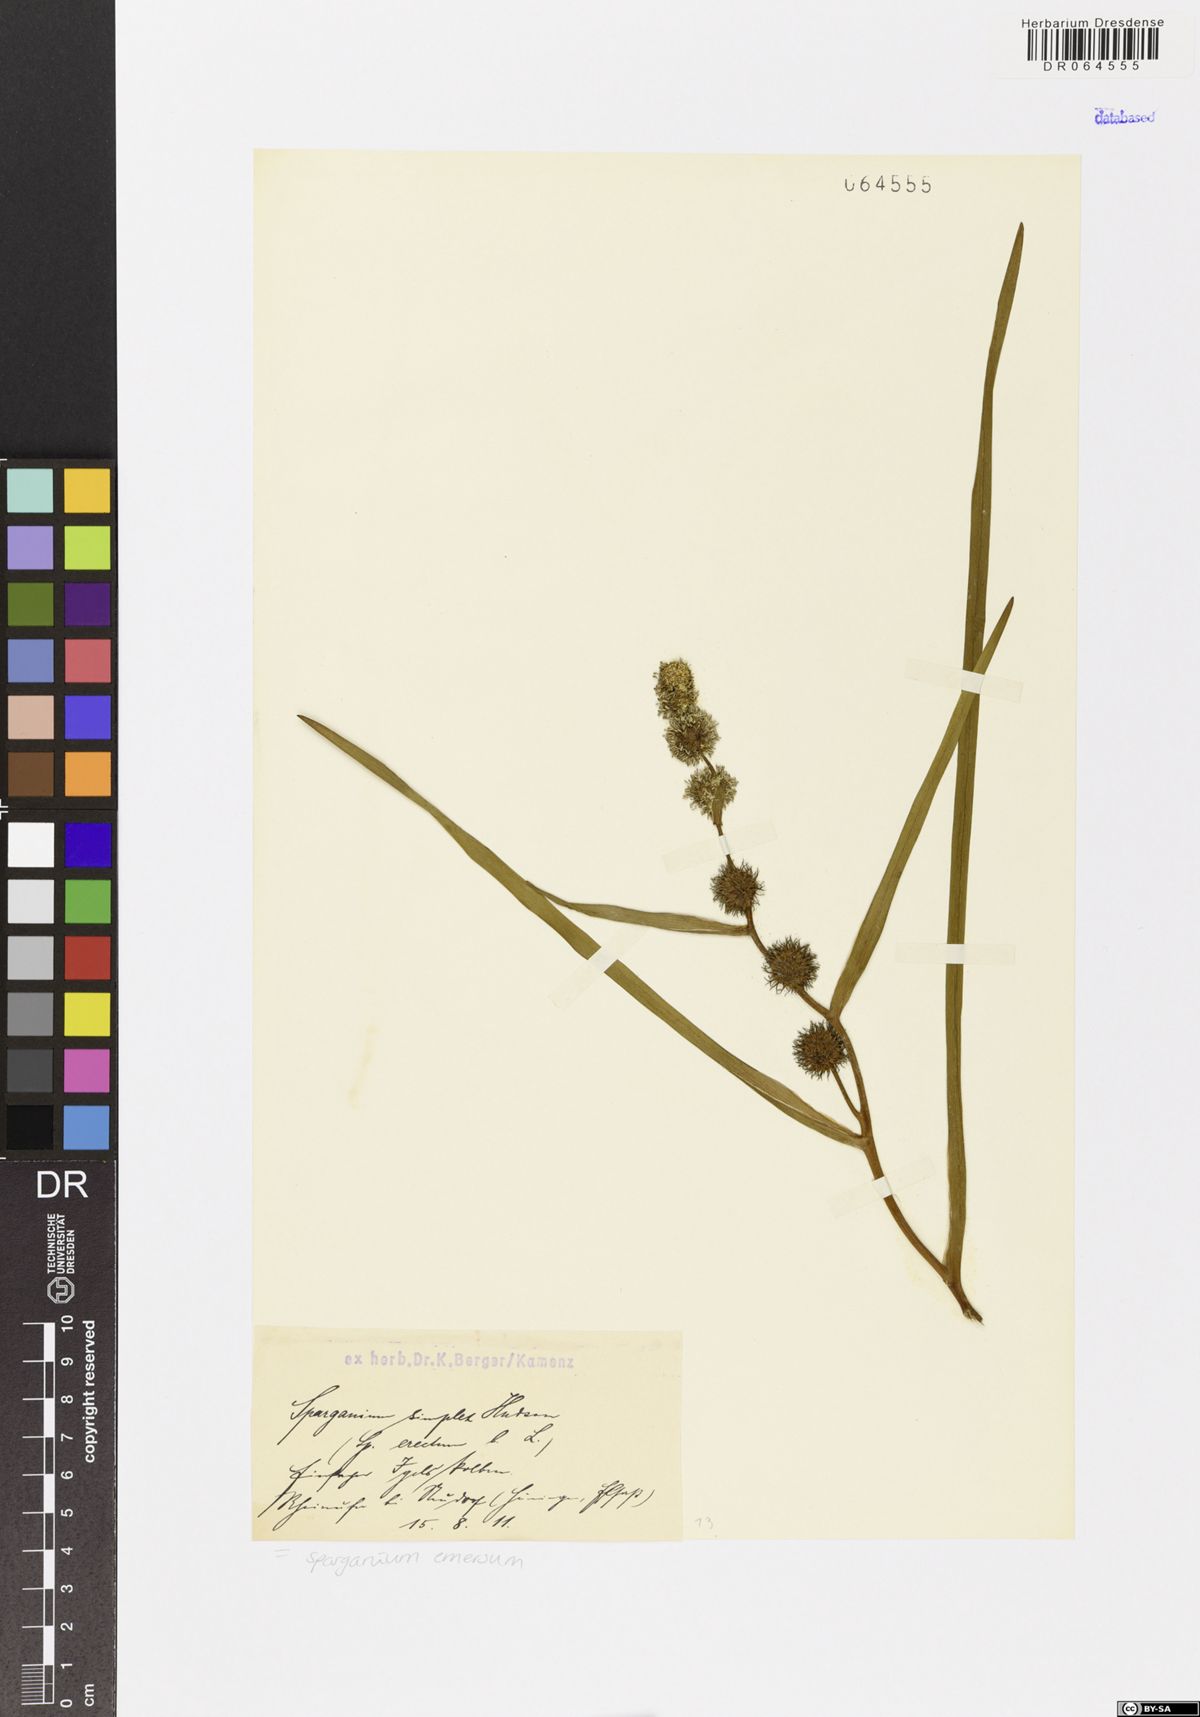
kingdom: Plantae
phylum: Tracheophyta
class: Liliopsida
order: Poales
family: Typhaceae
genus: Sparganium
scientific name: Sparganium emersum
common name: Unbranched bur-reed
